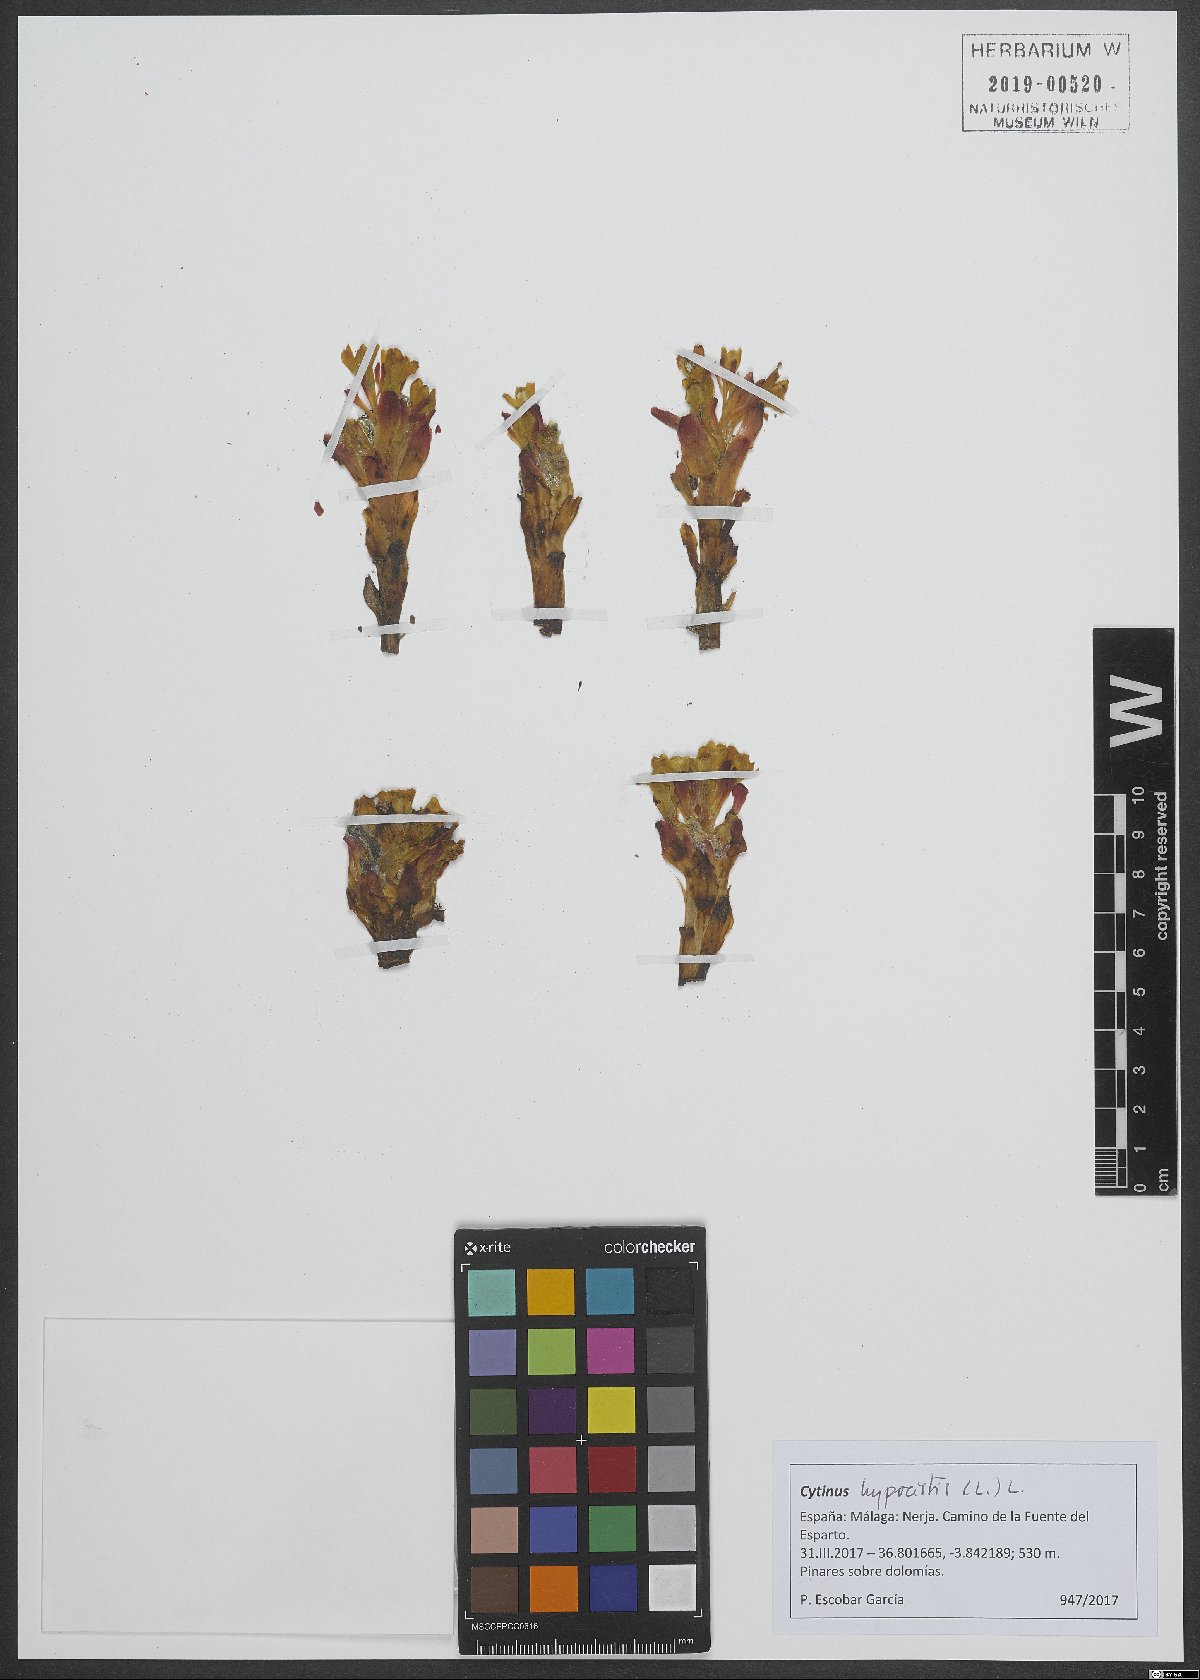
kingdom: Plantae
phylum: Tracheophyta
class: Magnoliopsida
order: Malvales
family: Cytinaceae
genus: Cytinus
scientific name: Cytinus hypocistis
